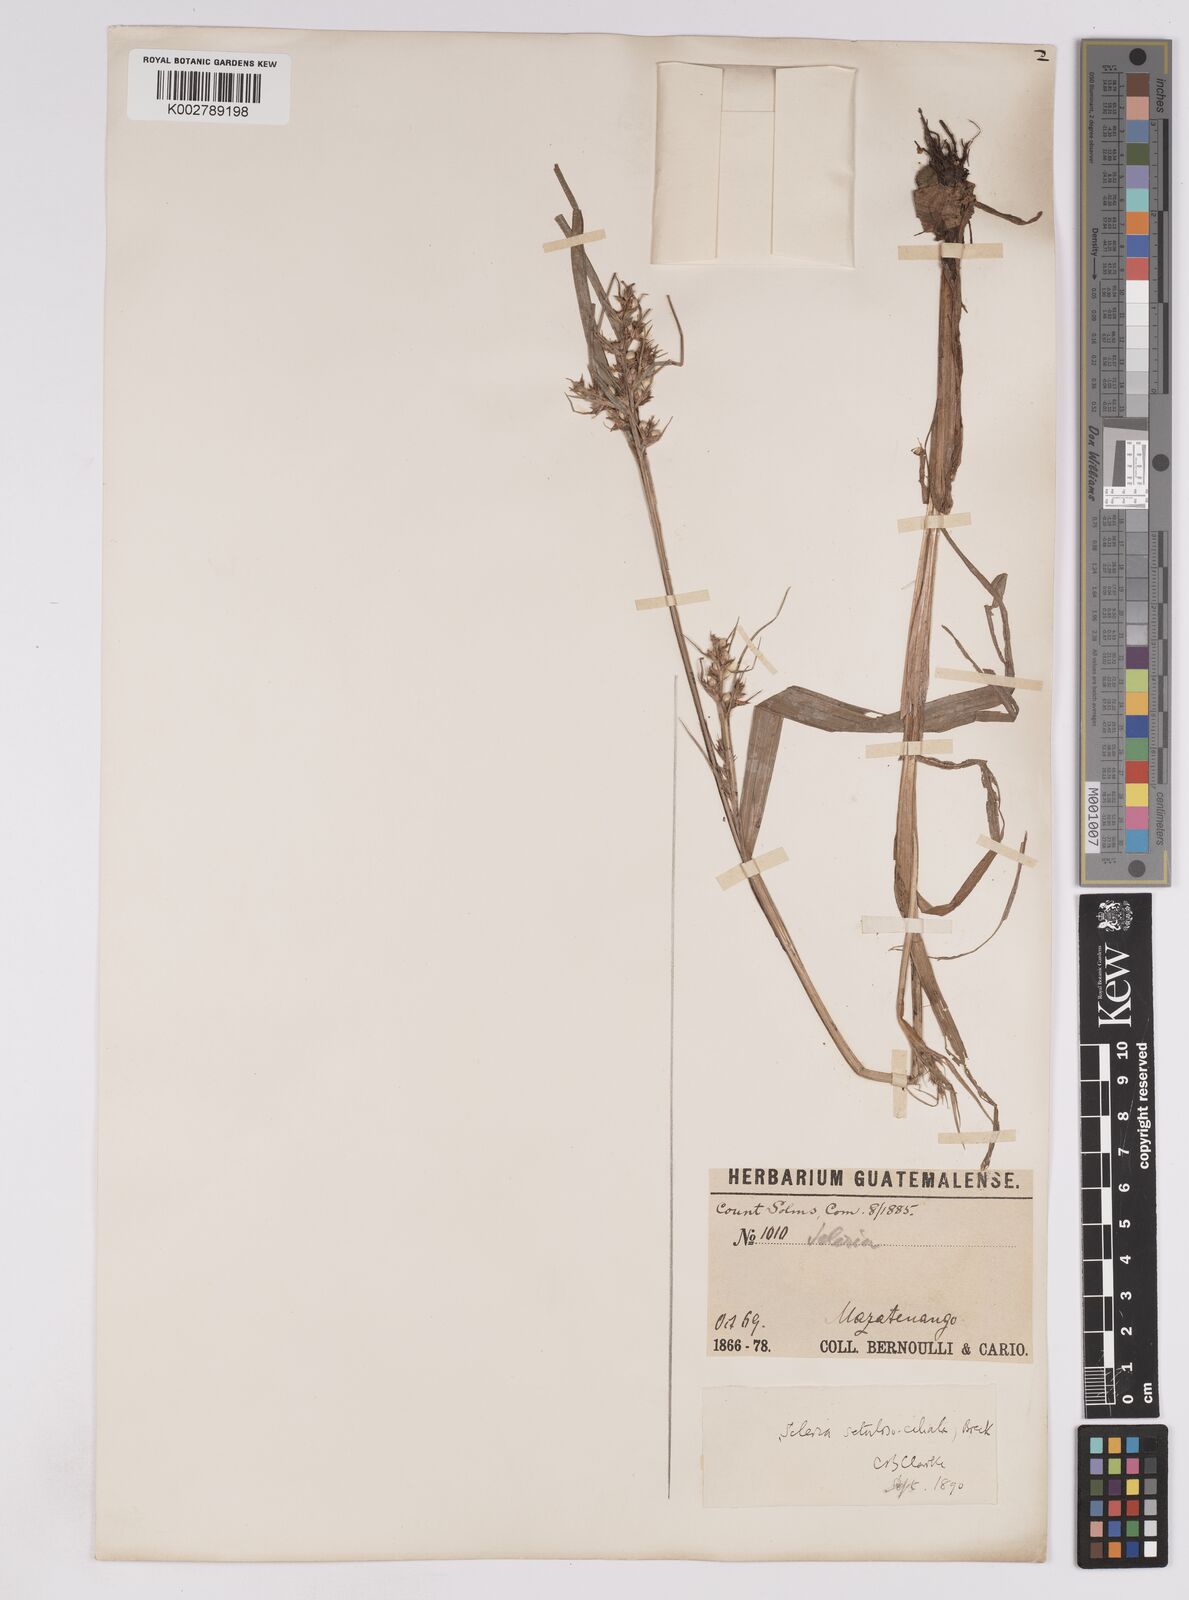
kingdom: Plantae
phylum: Tracheophyta
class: Liliopsida
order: Poales
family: Cyperaceae
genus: Scleria
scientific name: Scleria dregeana
